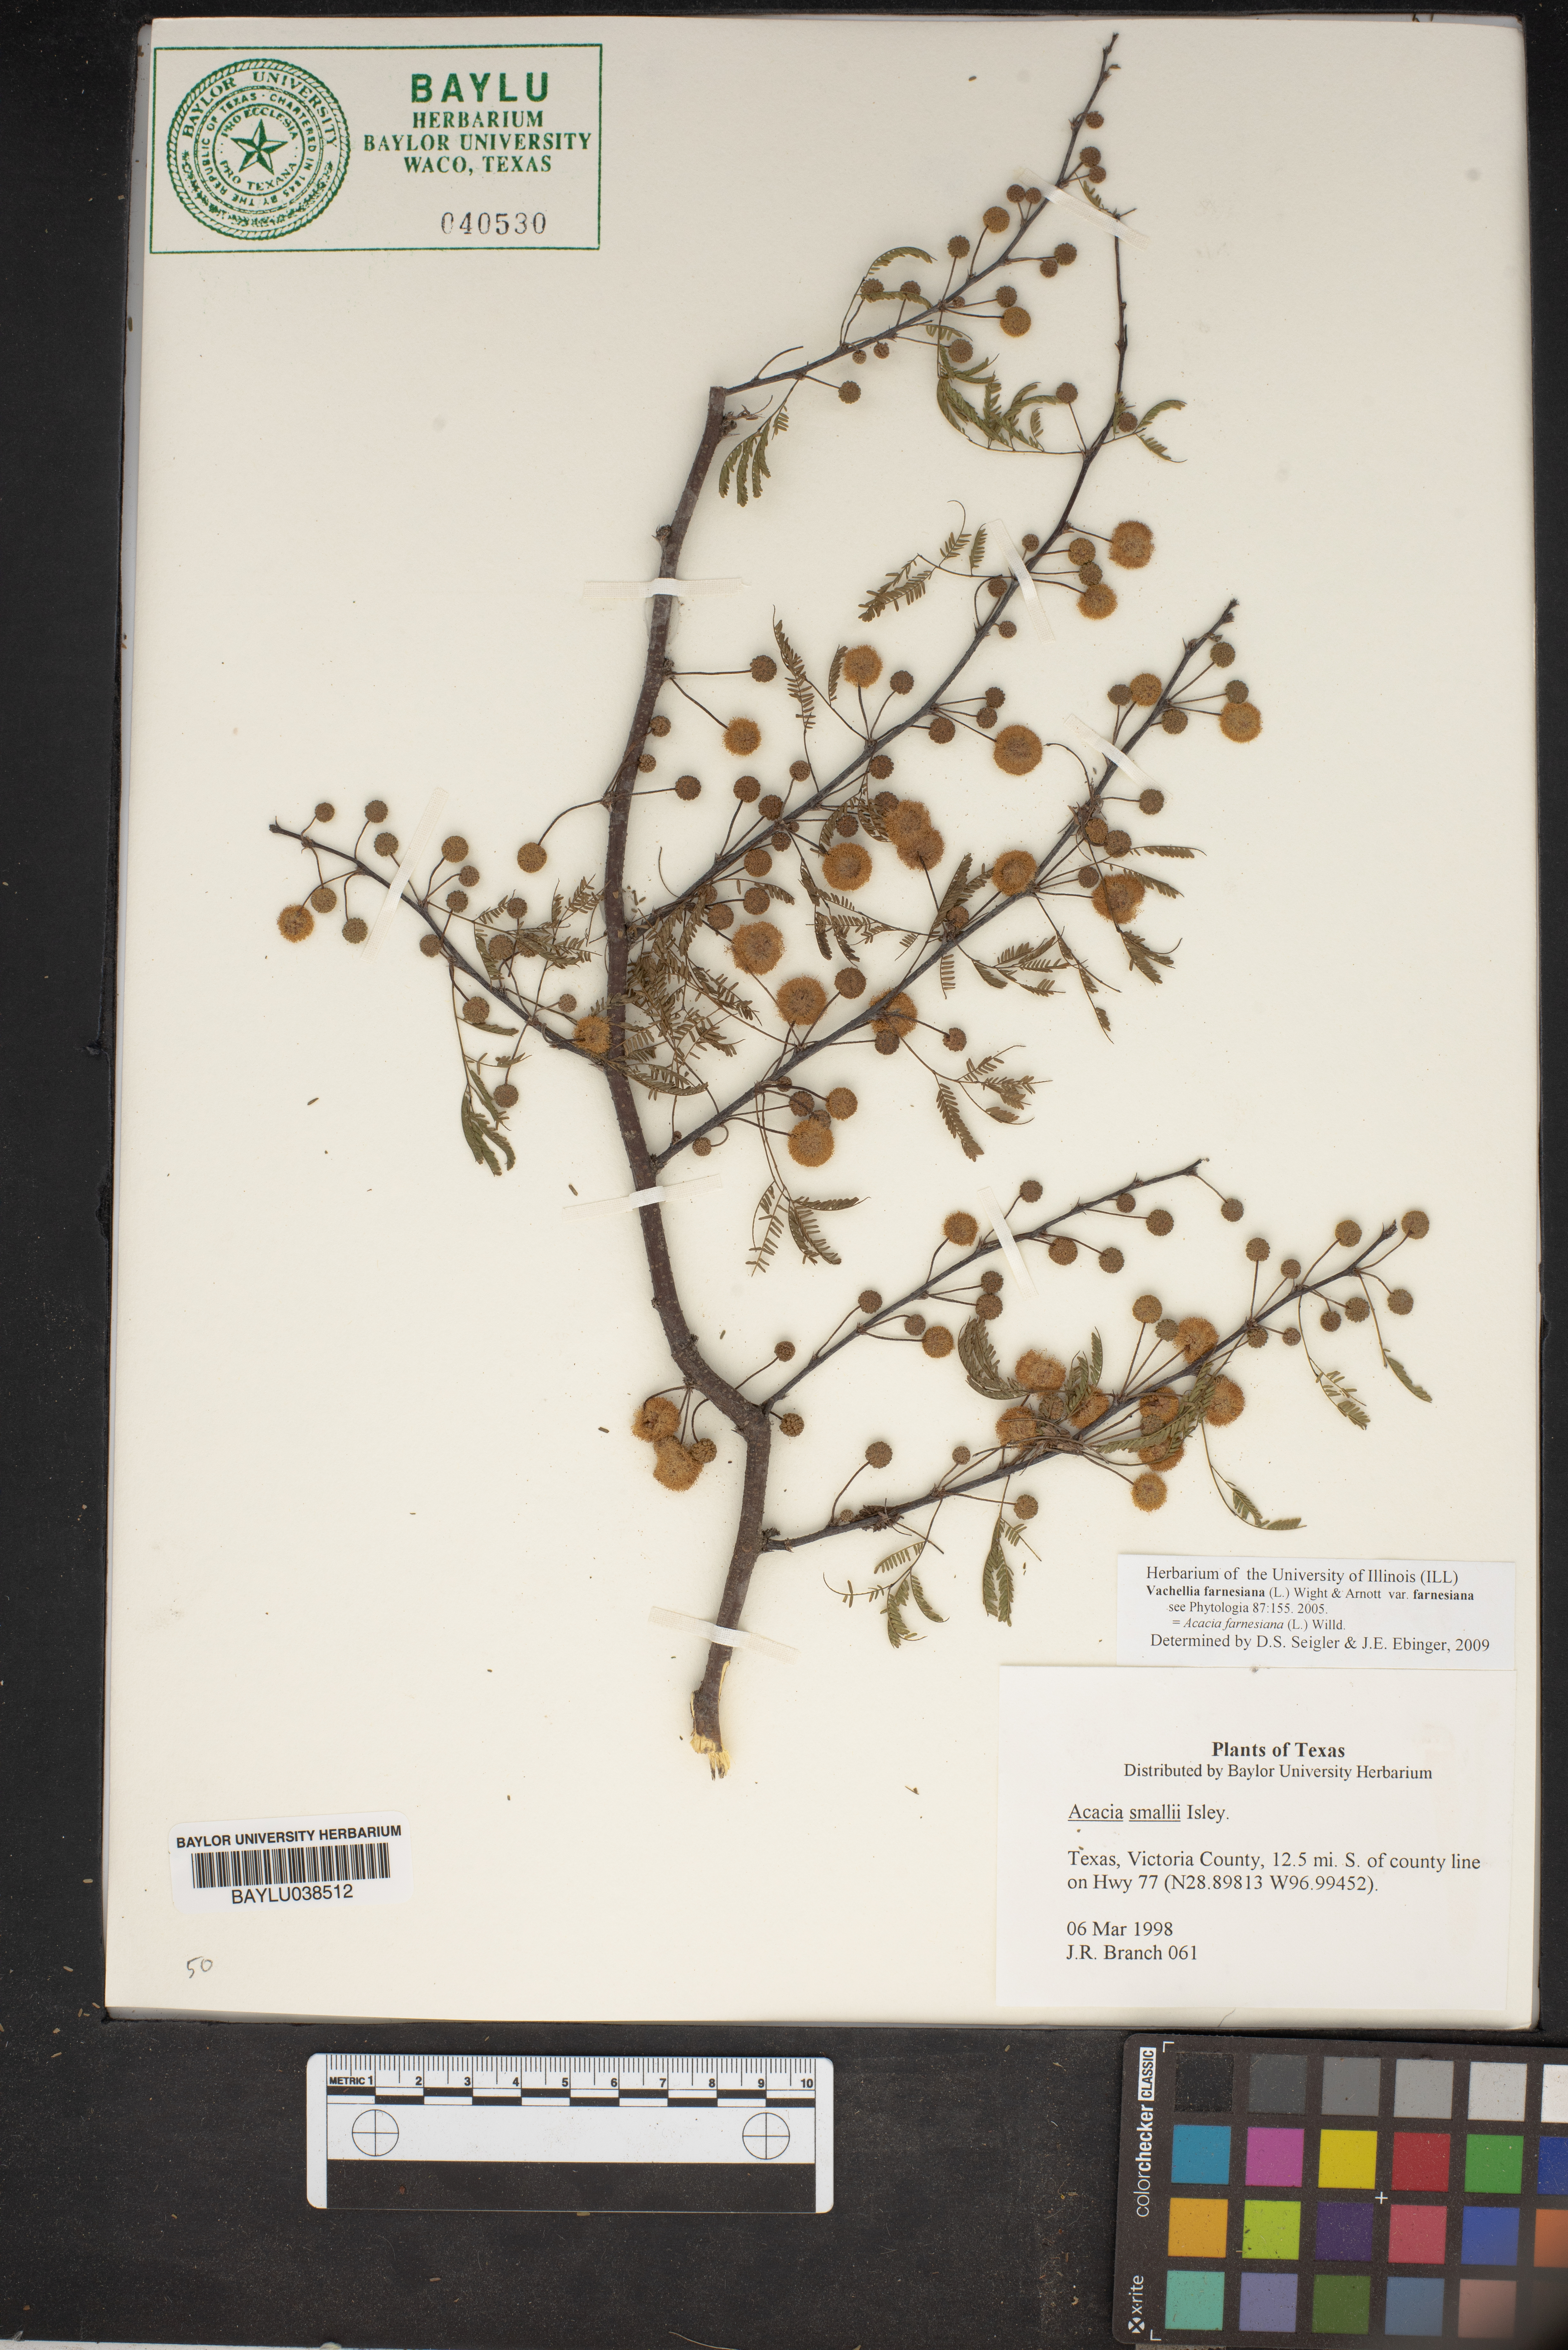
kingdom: Plantae
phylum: Tracheophyta
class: Magnoliopsida
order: Fabales
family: Fabaceae
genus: Vachellia
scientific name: Vachellia farnesiana
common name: Sweet acacia
